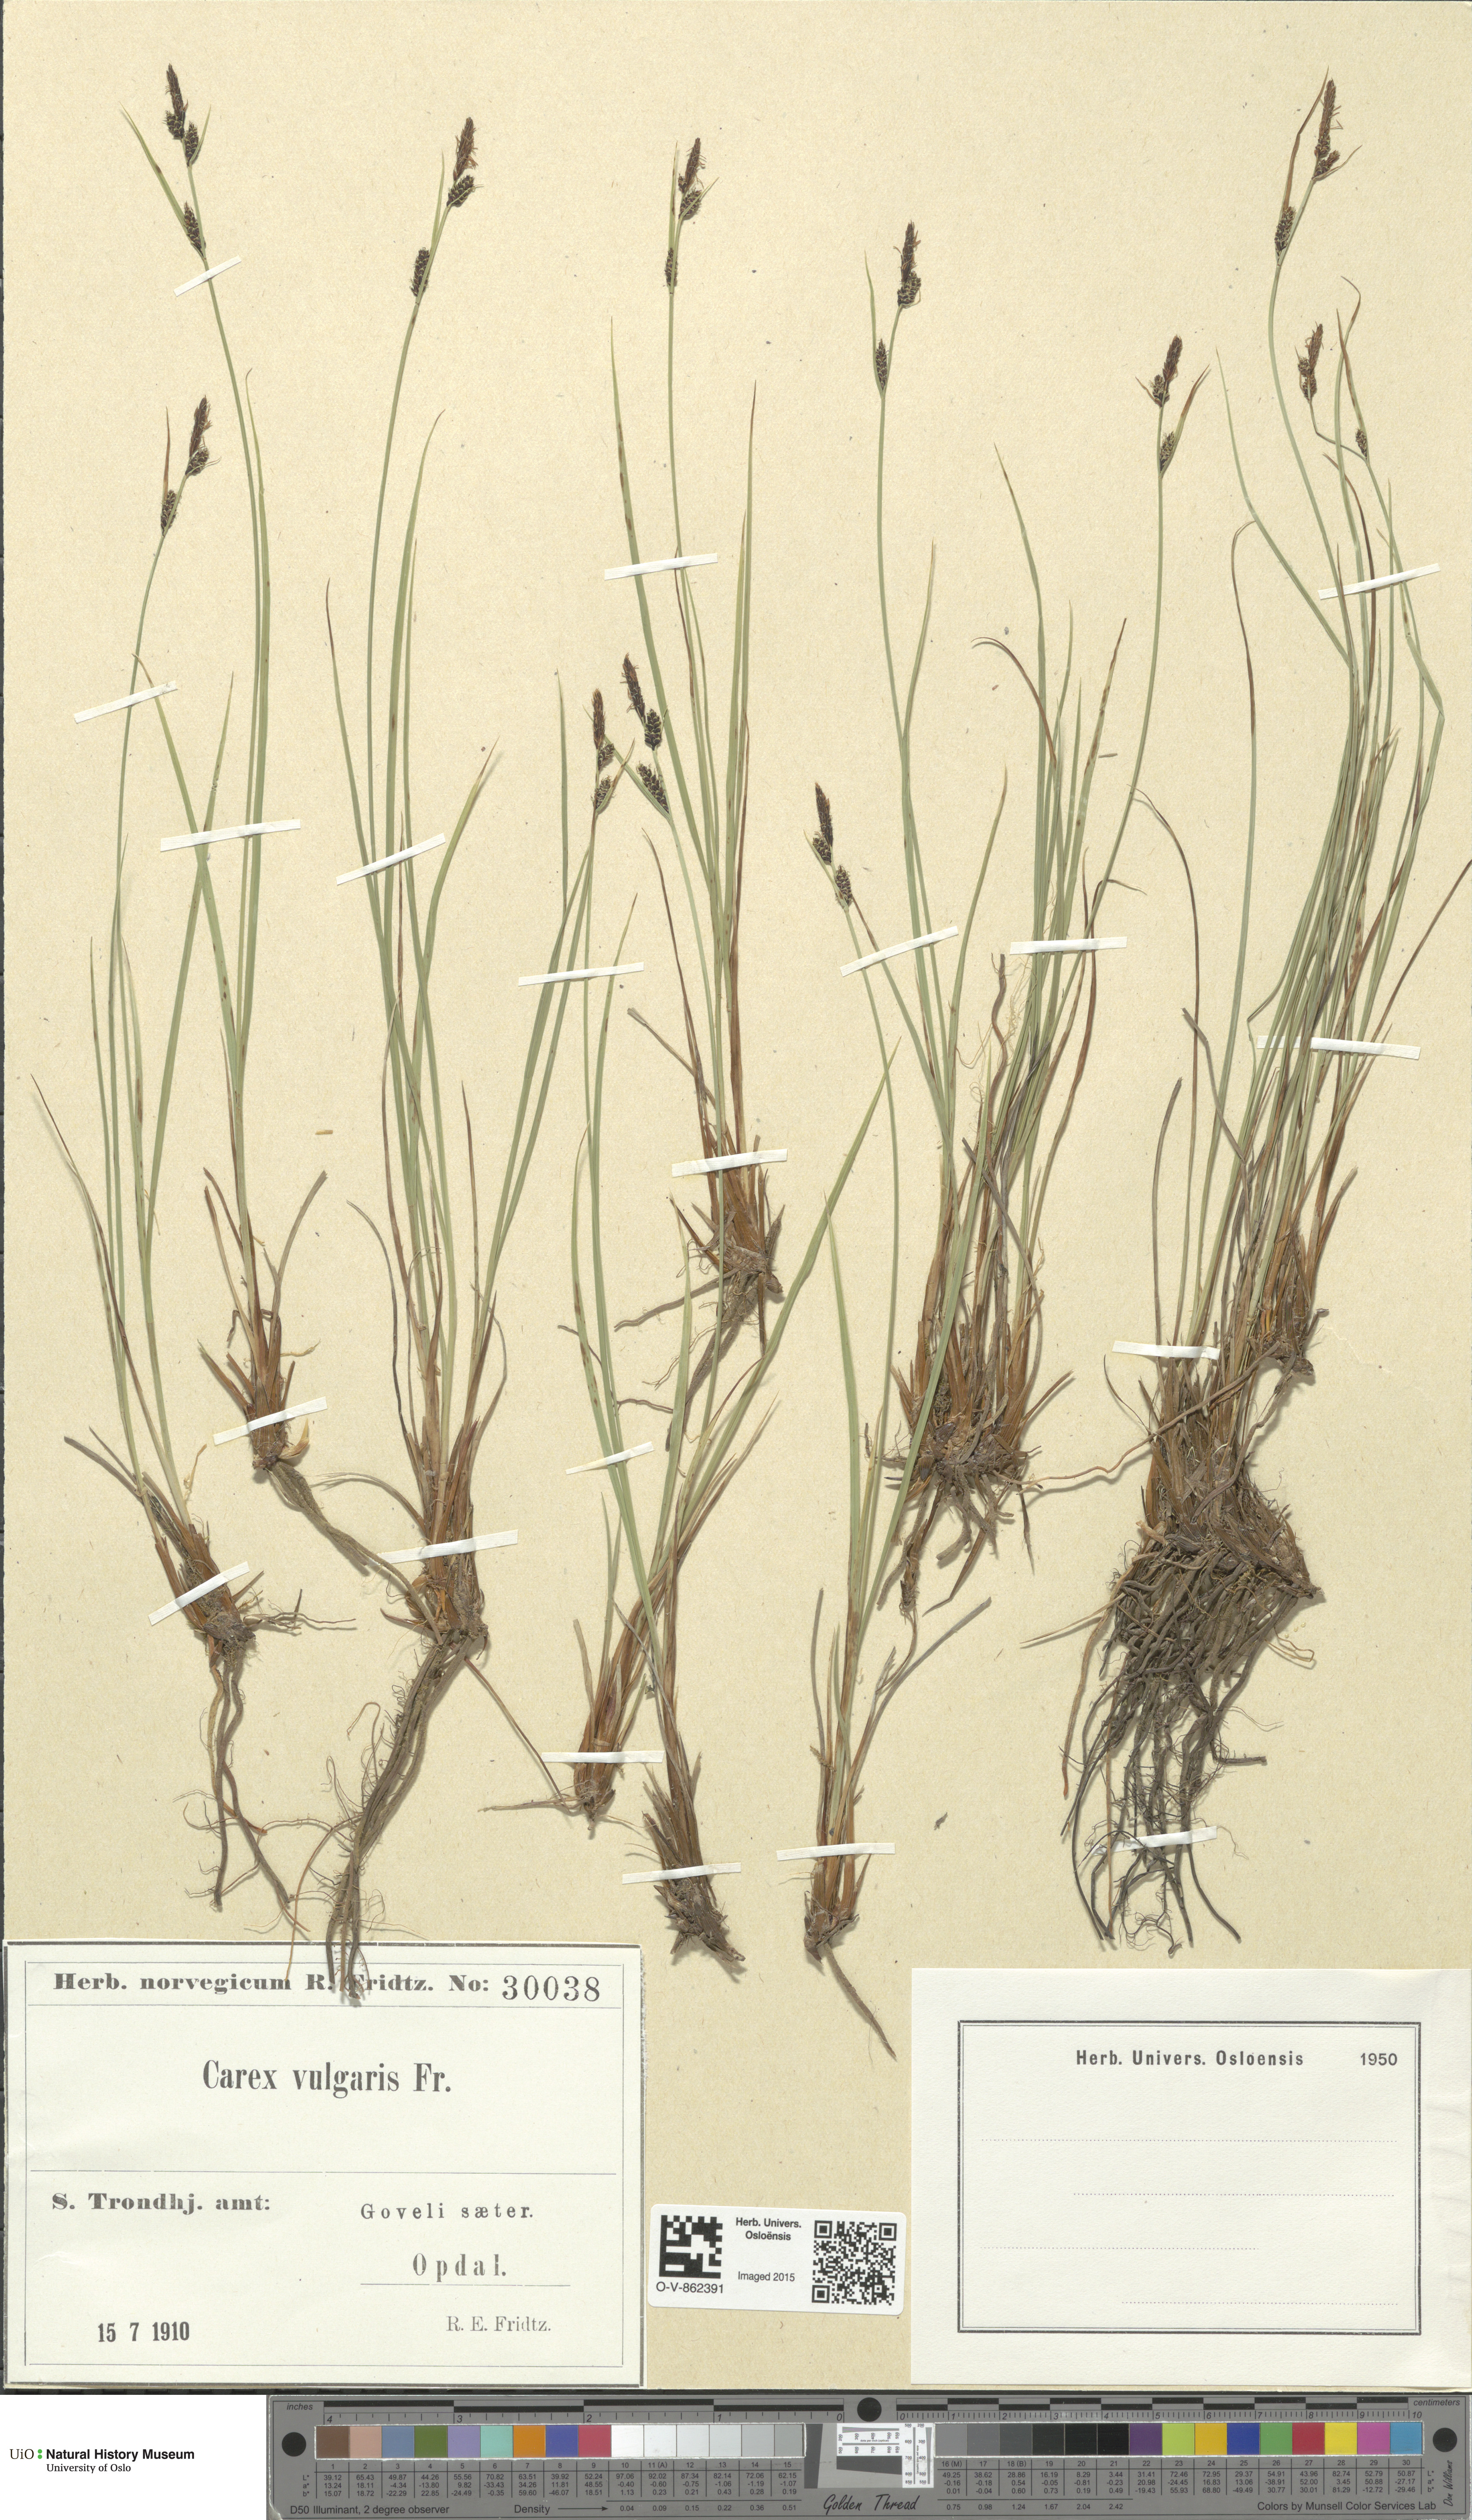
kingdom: Plantae
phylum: Tracheophyta
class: Liliopsida
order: Poales
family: Cyperaceae
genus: Carex
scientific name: Carex nigra
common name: Common sedge
